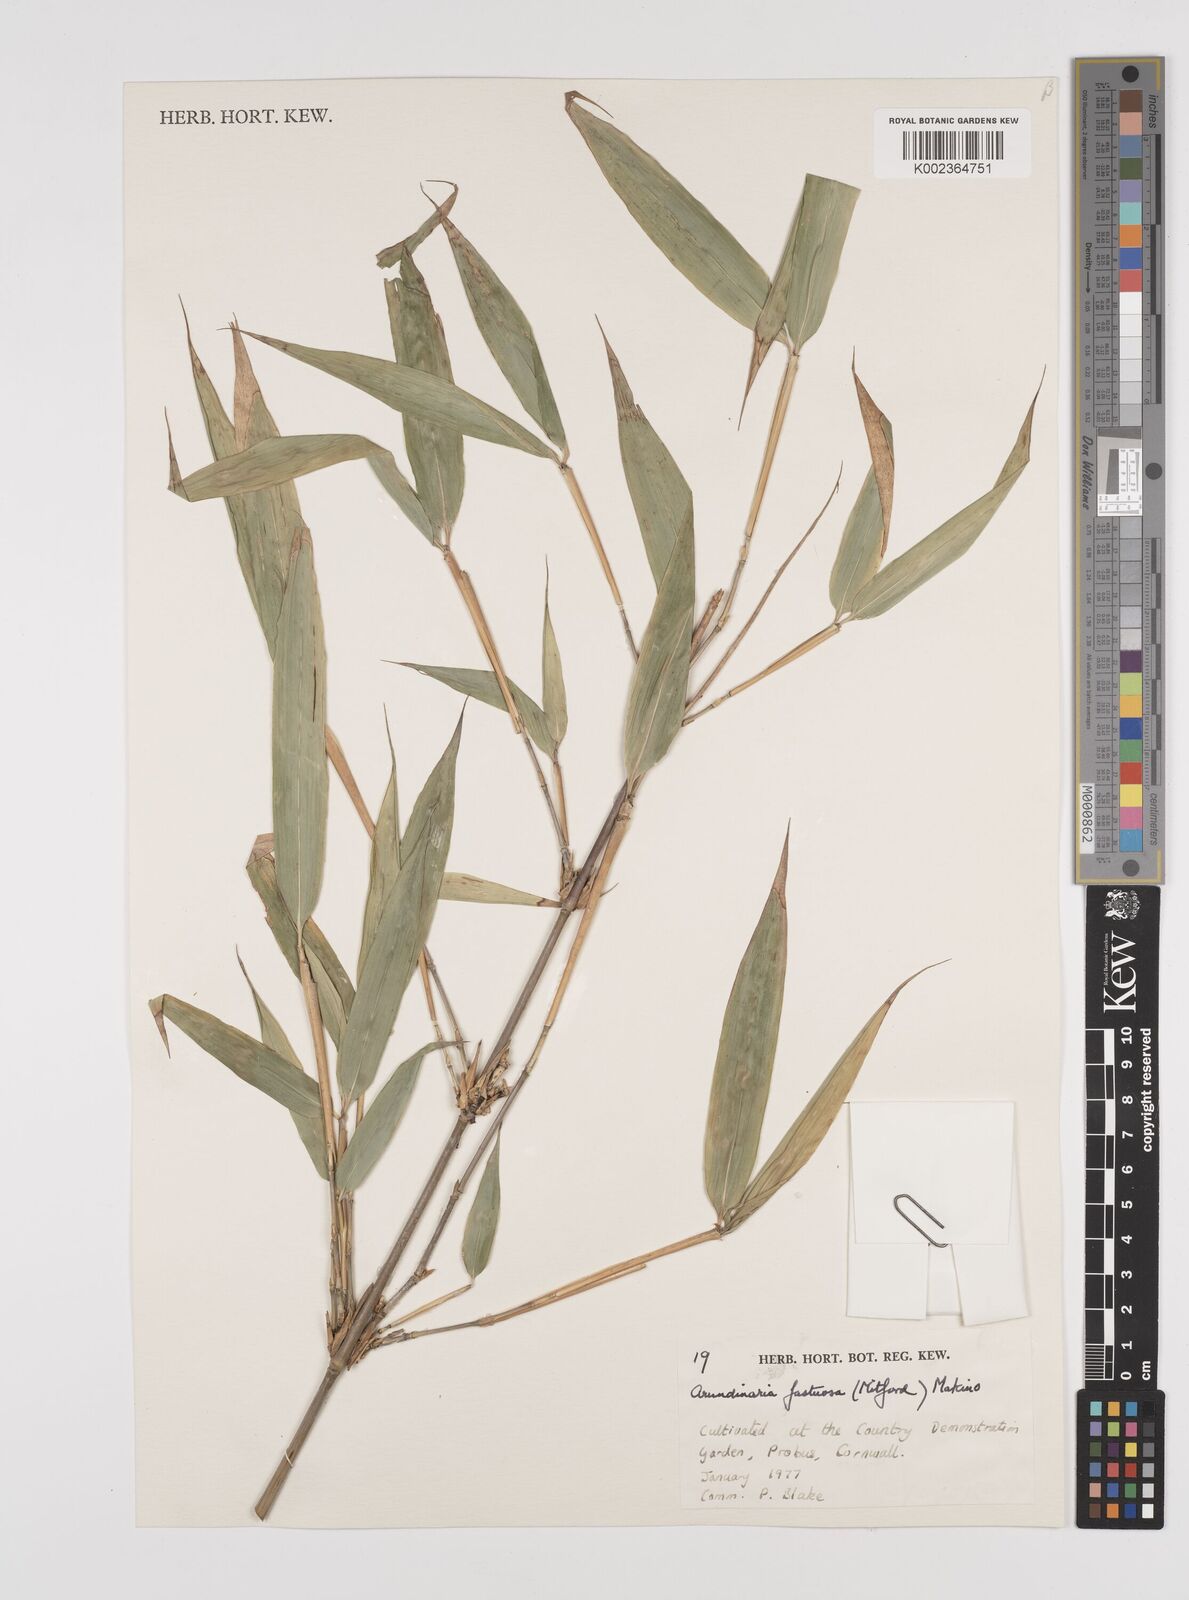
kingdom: Plantae
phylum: Tracheophyta
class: Liliopsida
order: Poales
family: Poaceae
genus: Semiarundinaria
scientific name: Semiarundinaria fastuosa
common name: Narihira bamboo
